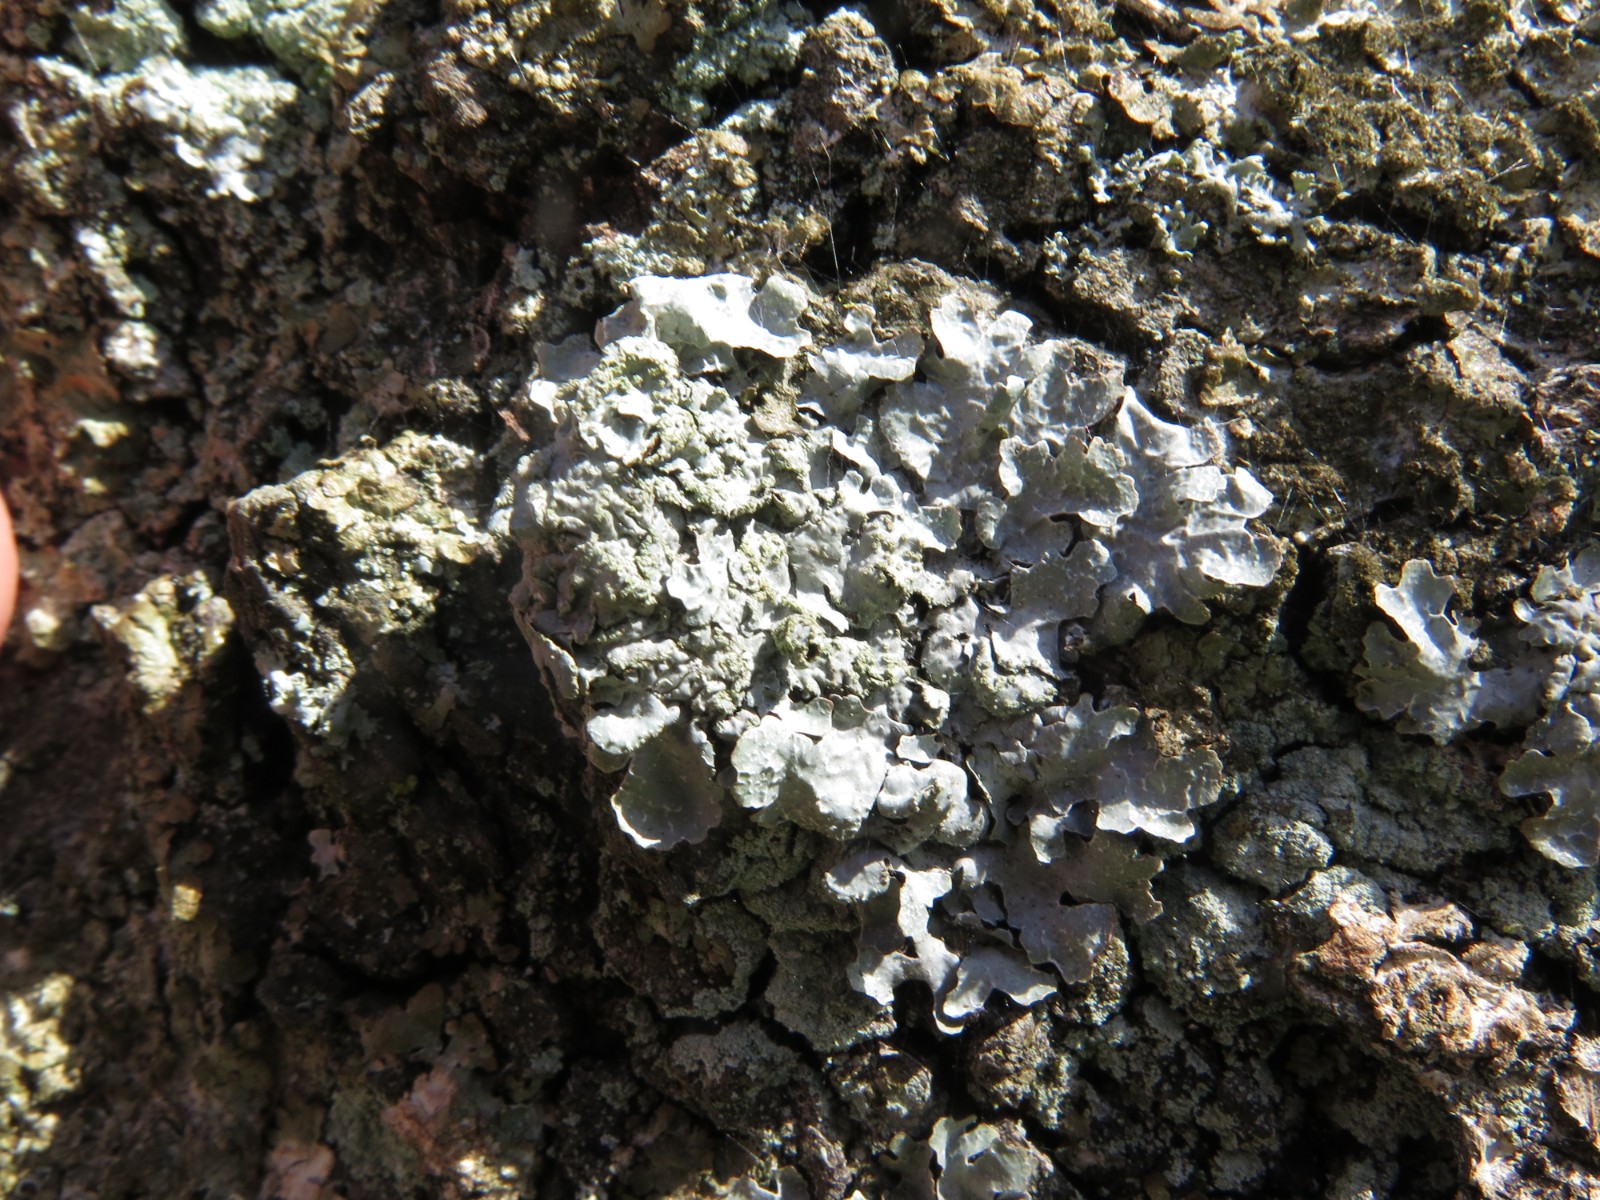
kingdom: Fungi
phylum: Ascomycota
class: Lecanoromycetes
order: Lecanorales
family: Parmeliaceae
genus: Parmelia
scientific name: Parmelia sulcata
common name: rynket skållav
